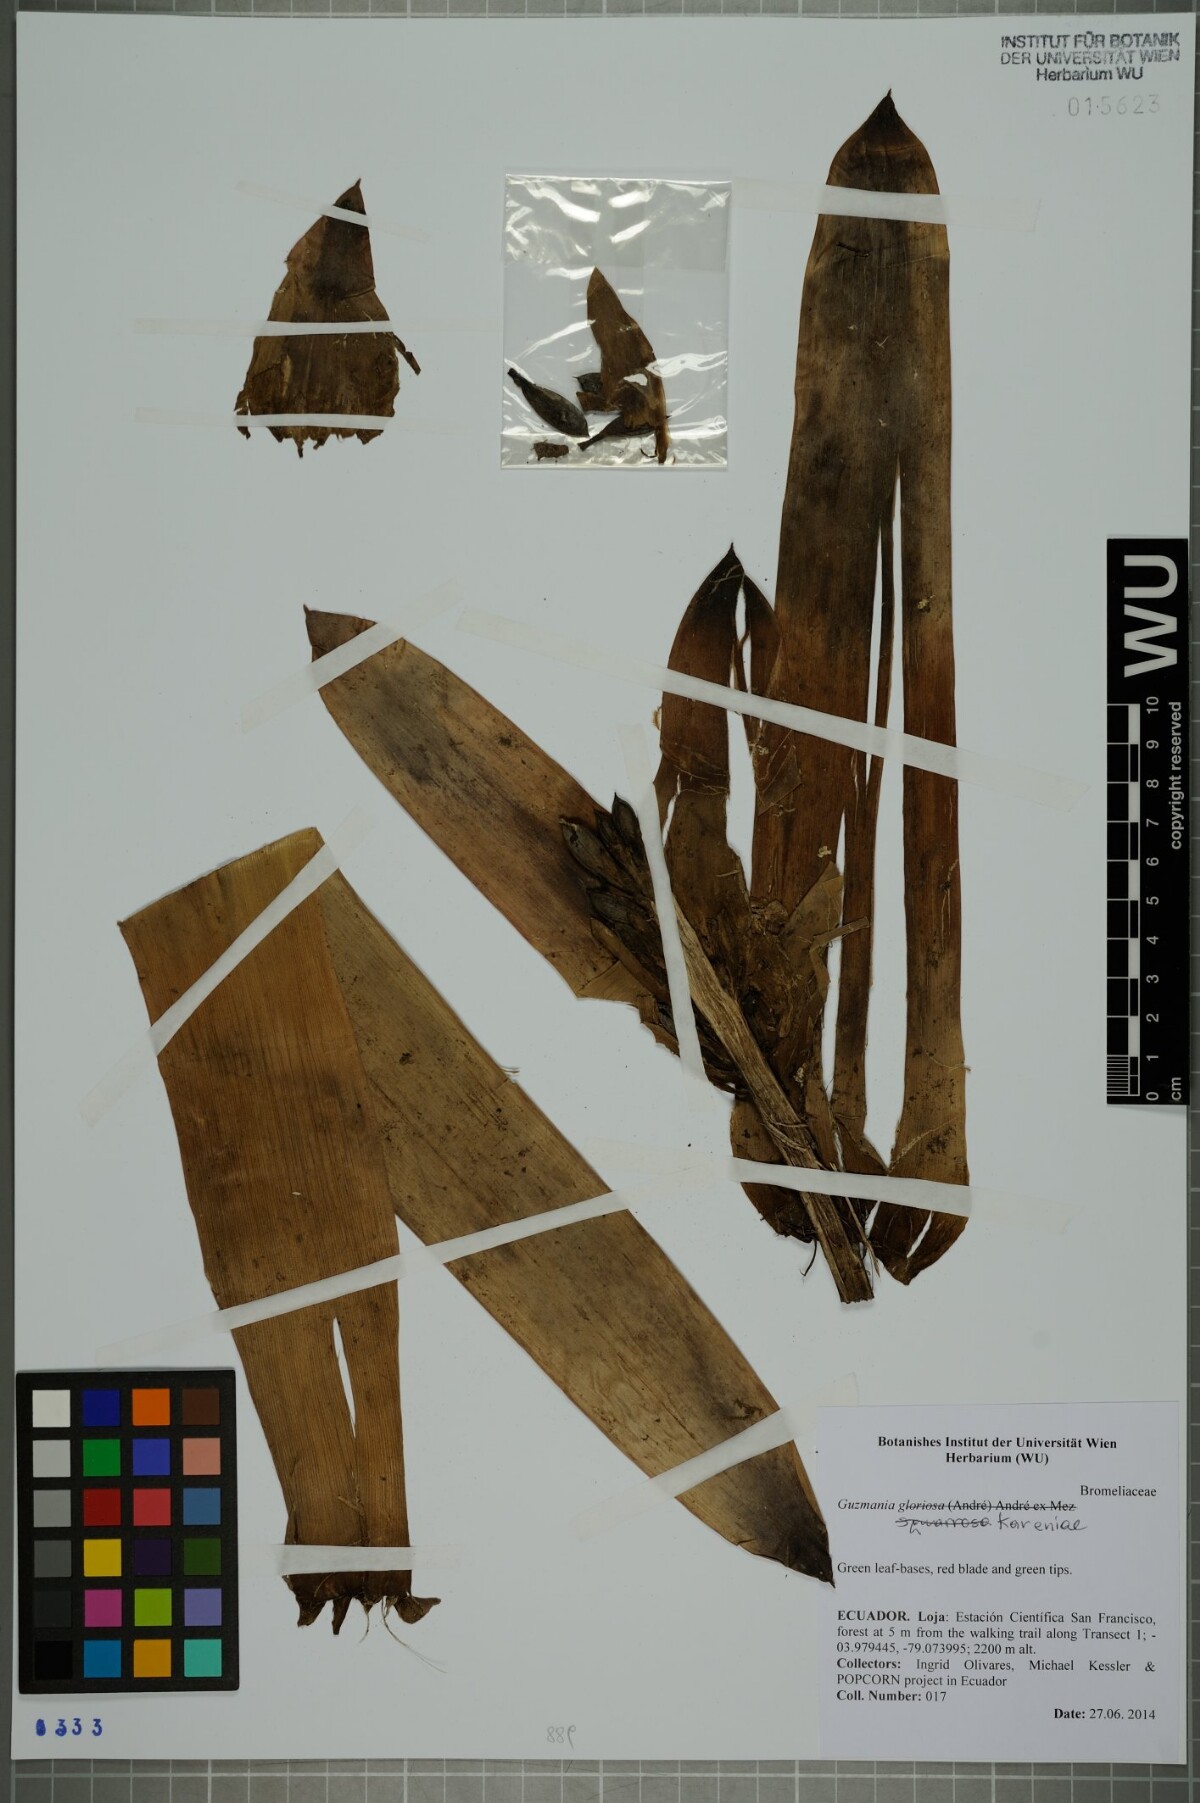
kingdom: Plantae
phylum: Tracheophyta
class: Liliopsida
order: Poales
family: Bromeliaceae
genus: Guzmania
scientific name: Guzmania kareniae
